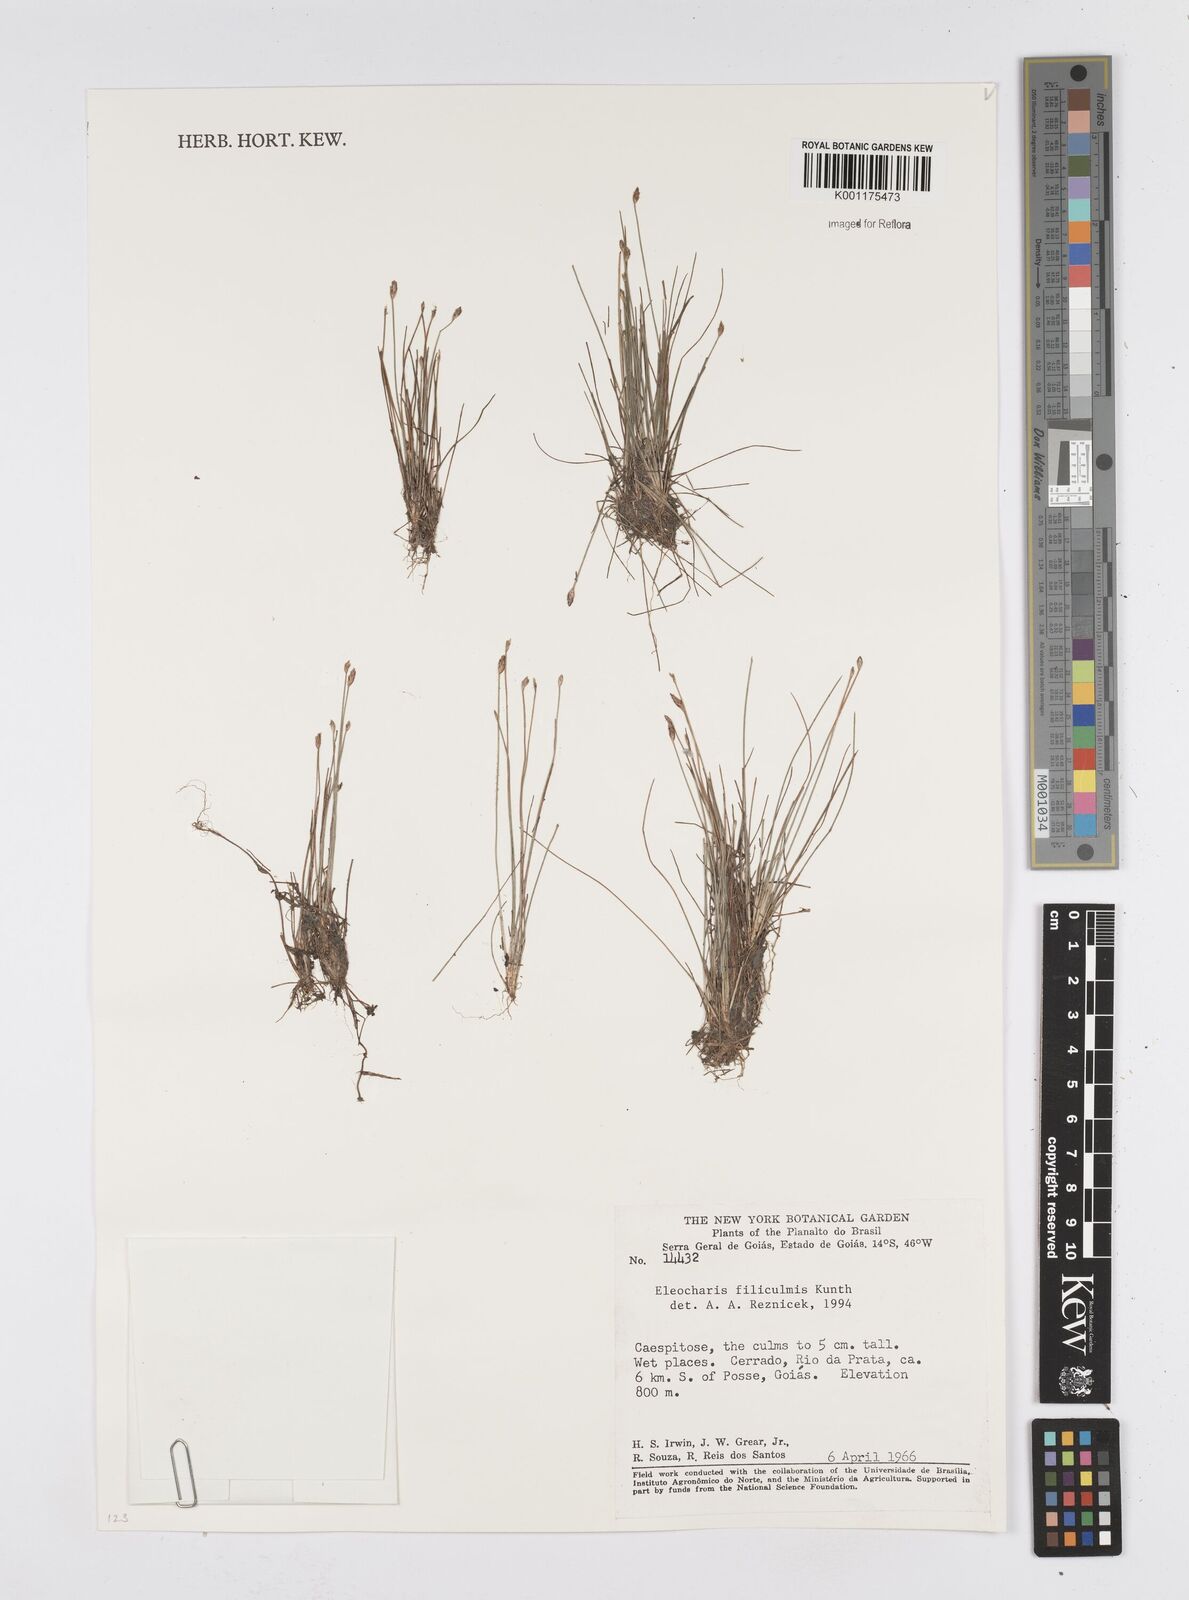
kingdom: Plantae
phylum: Tracheophyta
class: Liliopsida
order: Poales
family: Cyperaceae
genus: Eleocharis
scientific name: Eleocharis filiculmis
